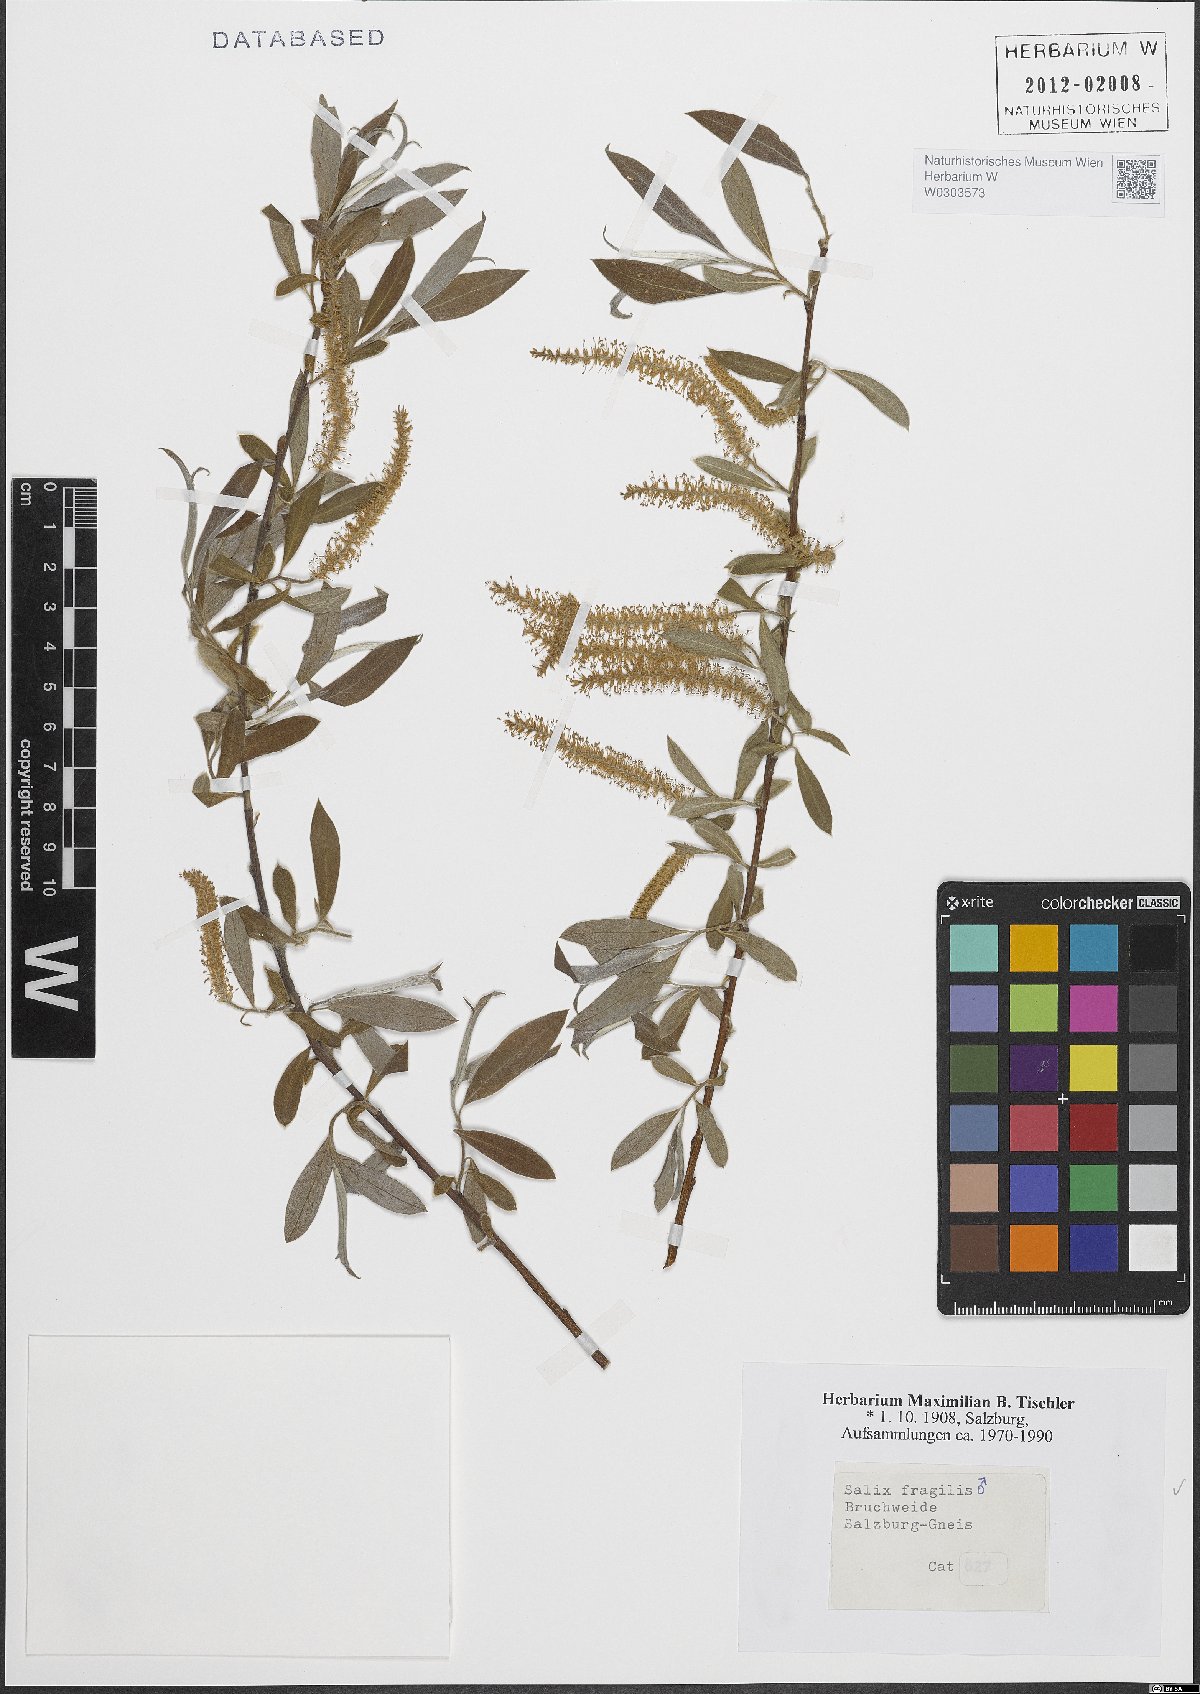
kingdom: Plantae
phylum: Tracheophyta
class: Magnoliopsida
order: Malpighiales
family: Salicaceae
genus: Salix
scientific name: Salix fragilis
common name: Crack willow
